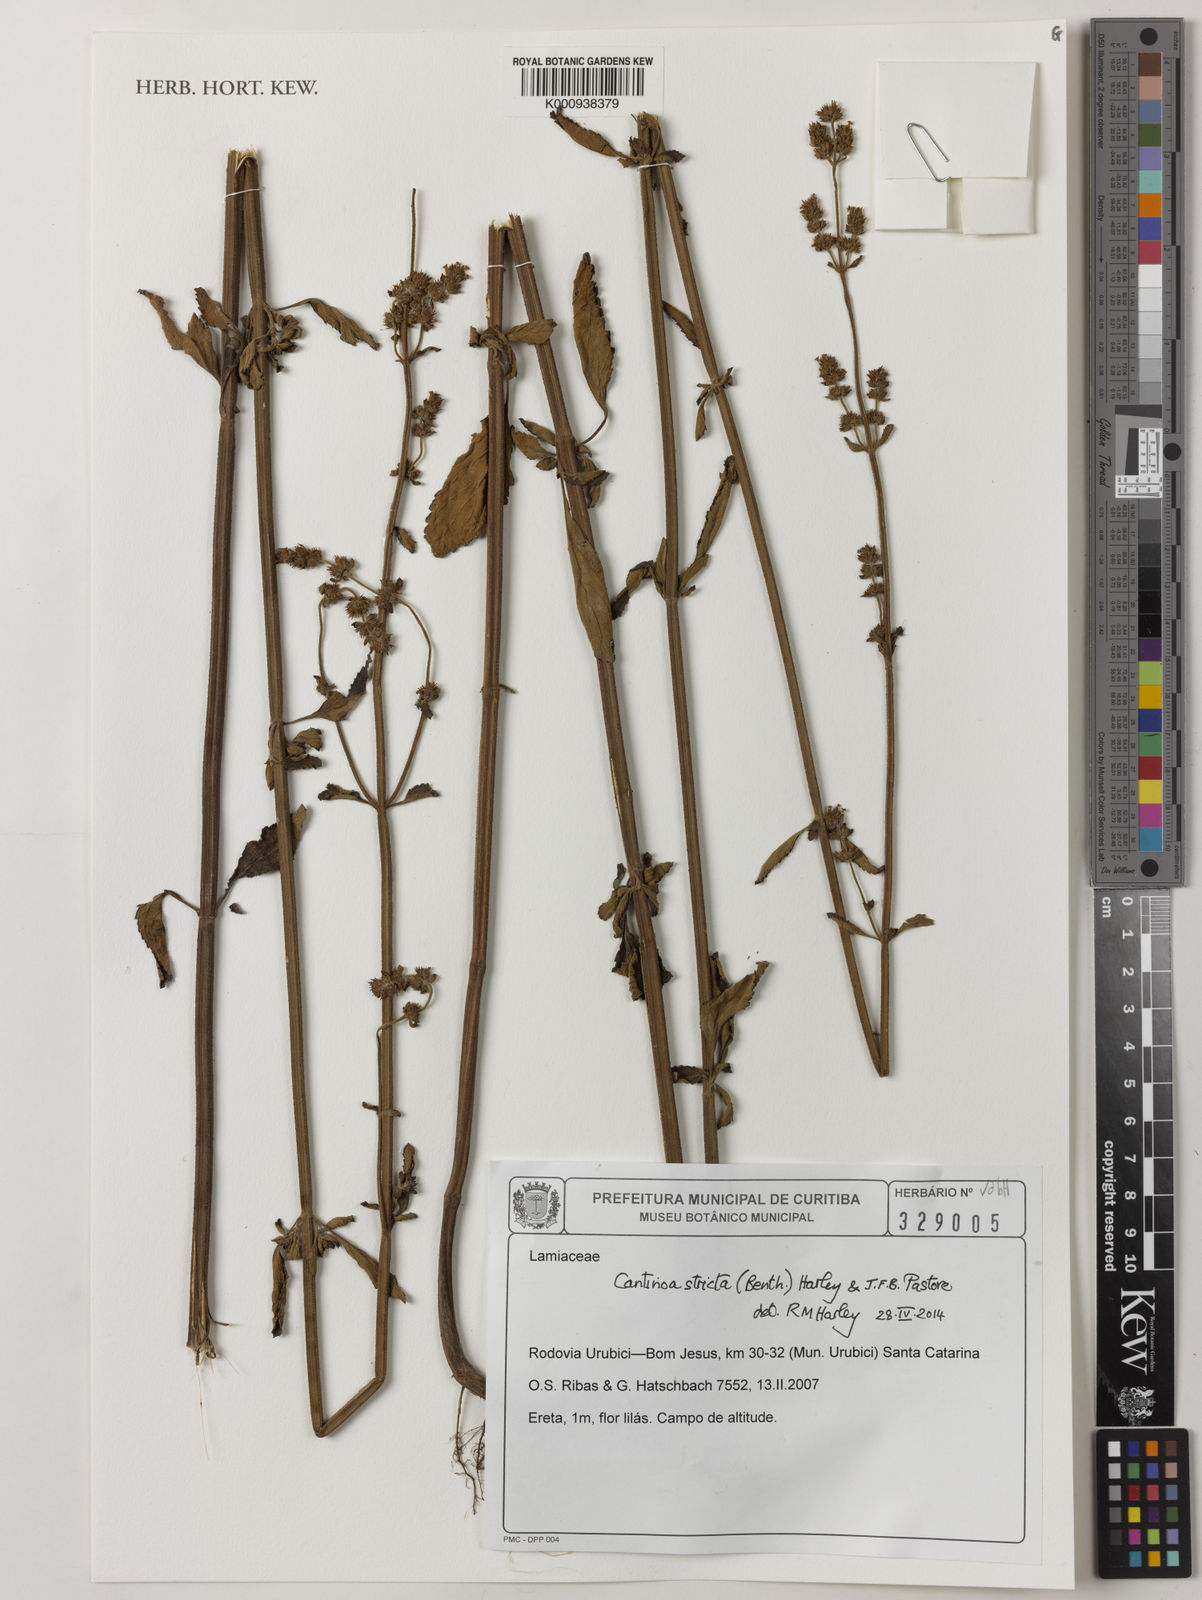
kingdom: Plantae
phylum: Tracheophyta
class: Magnoliopsida
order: Lamiales
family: Lamiaceae
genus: Cantinoa
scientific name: Cantinoa stricta
